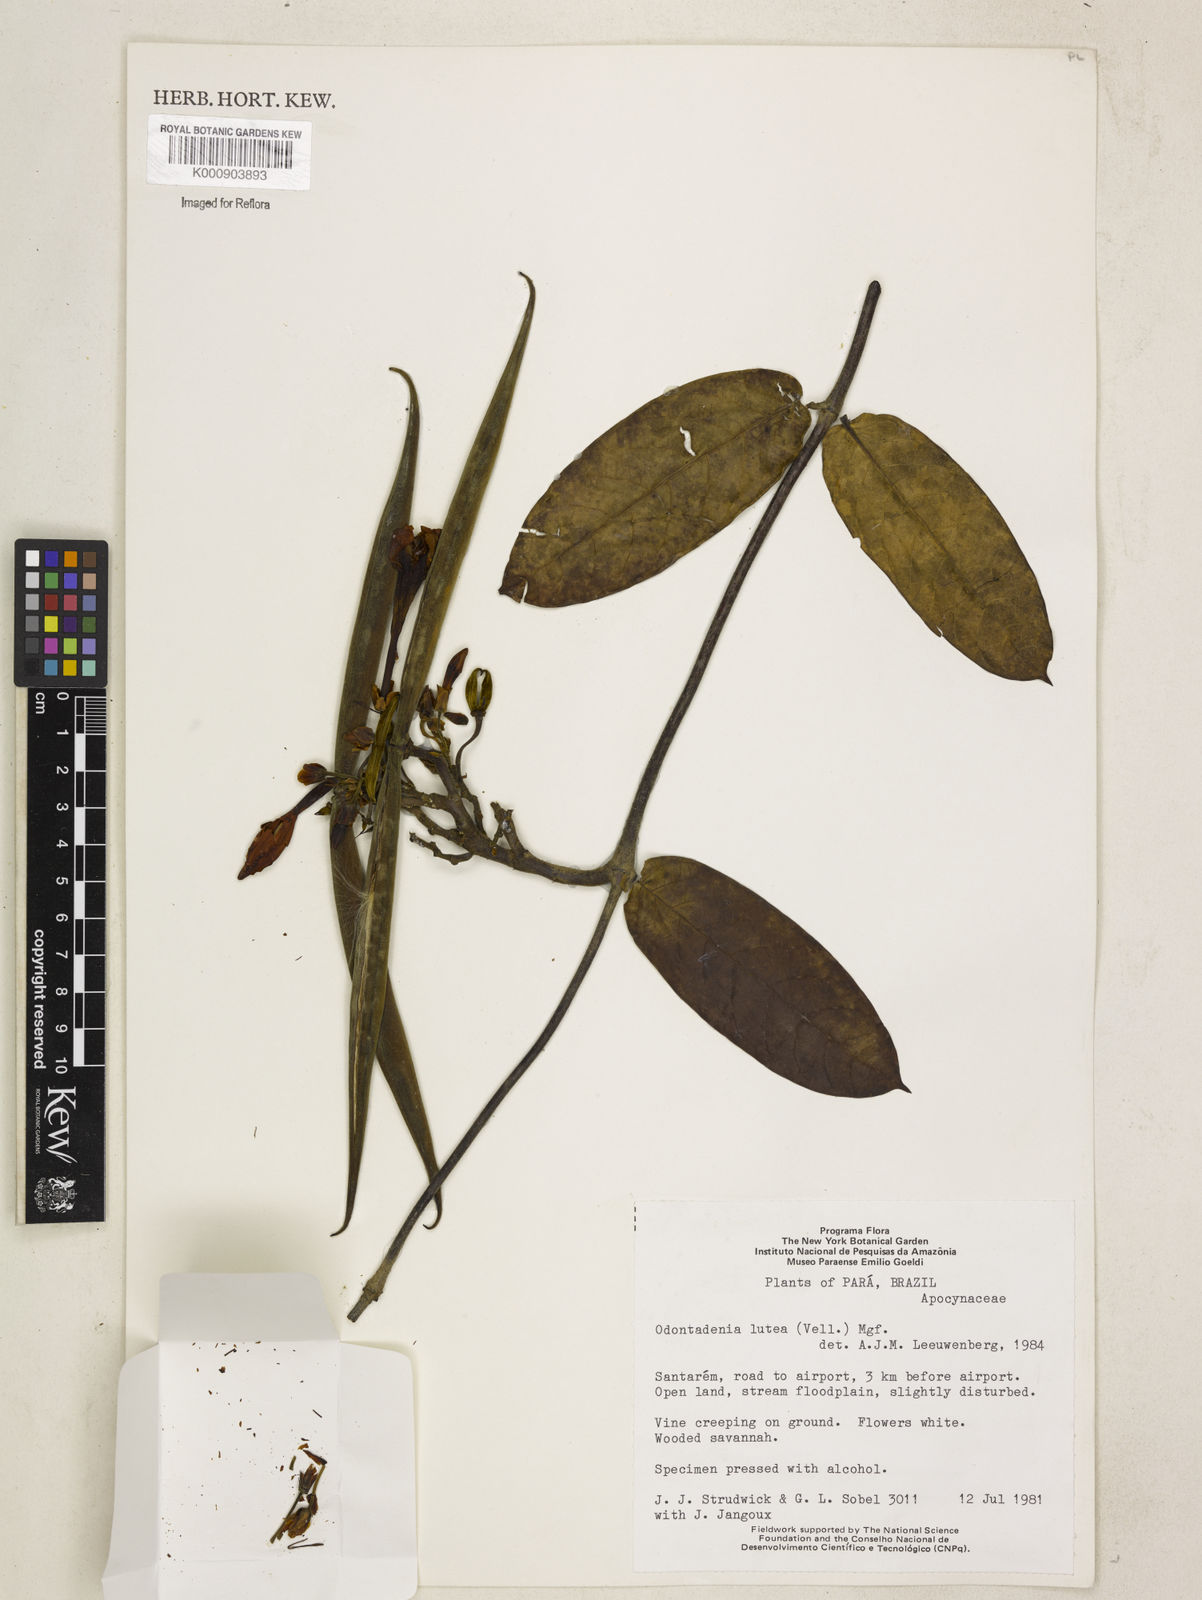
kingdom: Plantae
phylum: Tracheophyta
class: Magnoliopsida
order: Gentianales
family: Apocynaceae
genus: Odontadenia
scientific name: Odontadenia lutea
